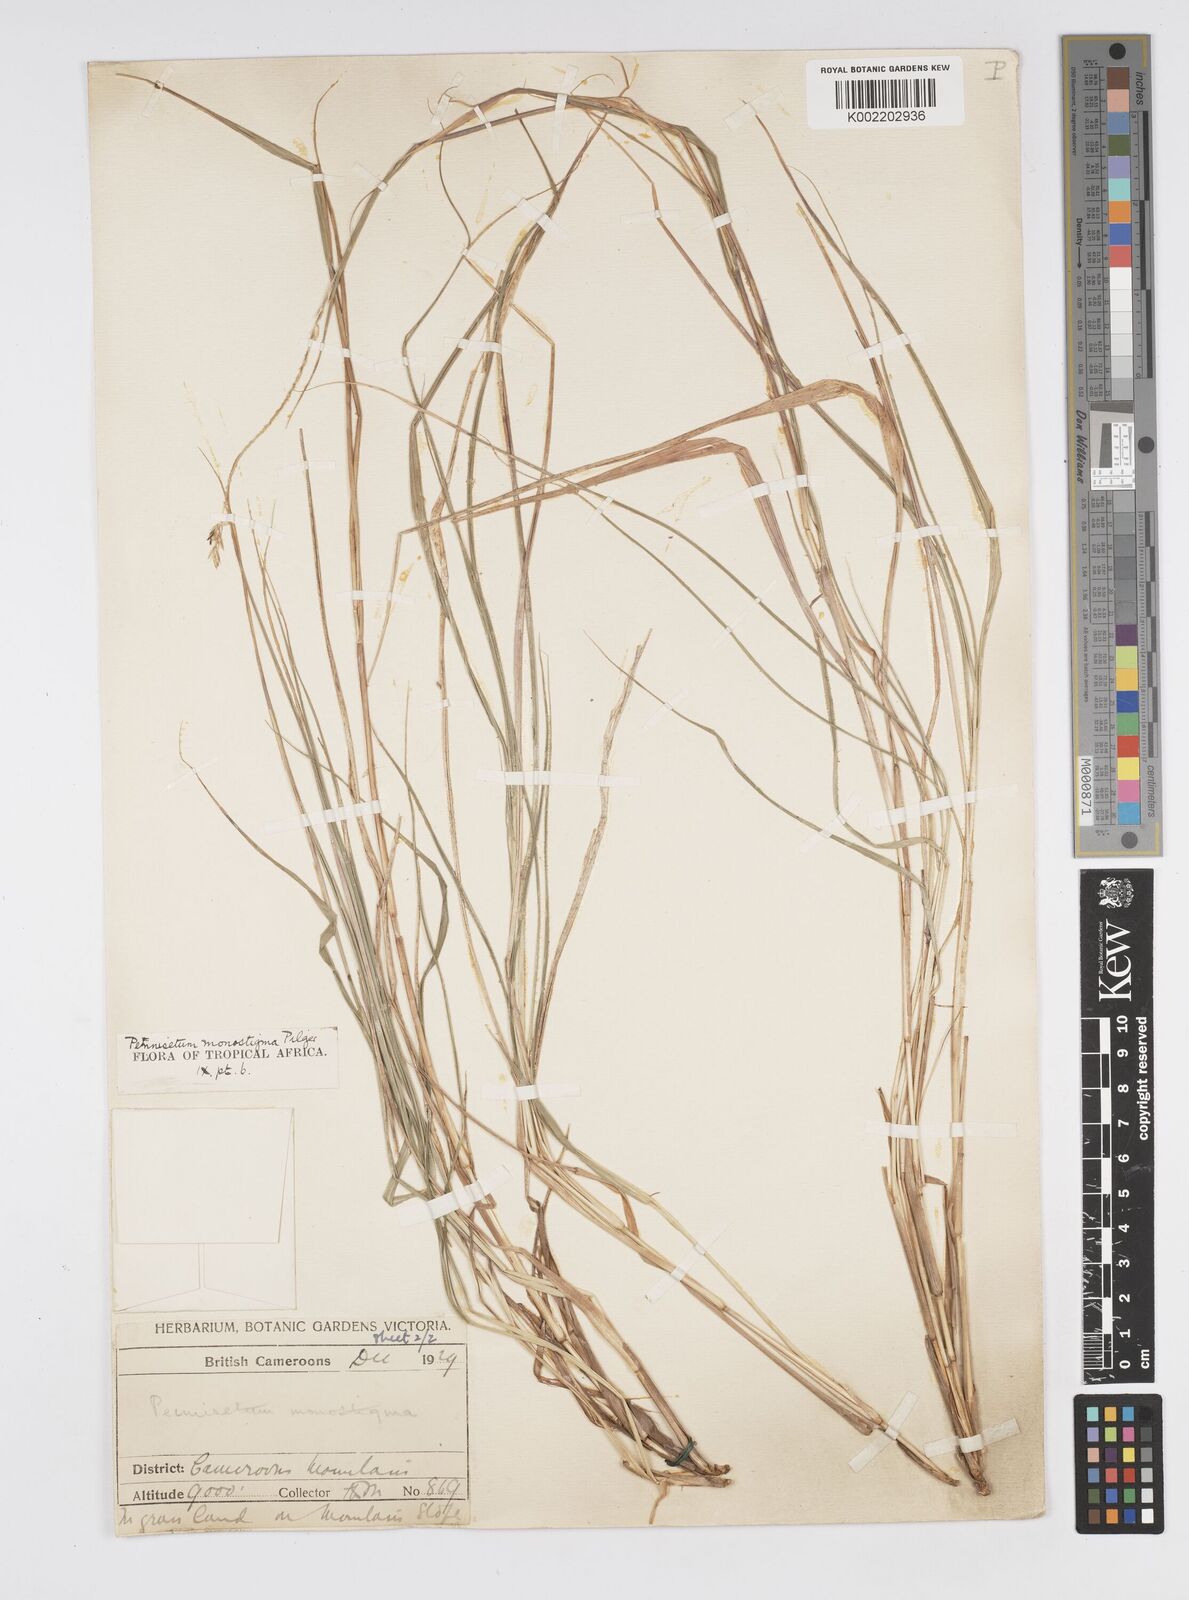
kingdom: Plantae
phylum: Tracheophyta
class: Liliopsida
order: Poales
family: Poaceae
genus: Cenchrus
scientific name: Cenchrus monostigma
